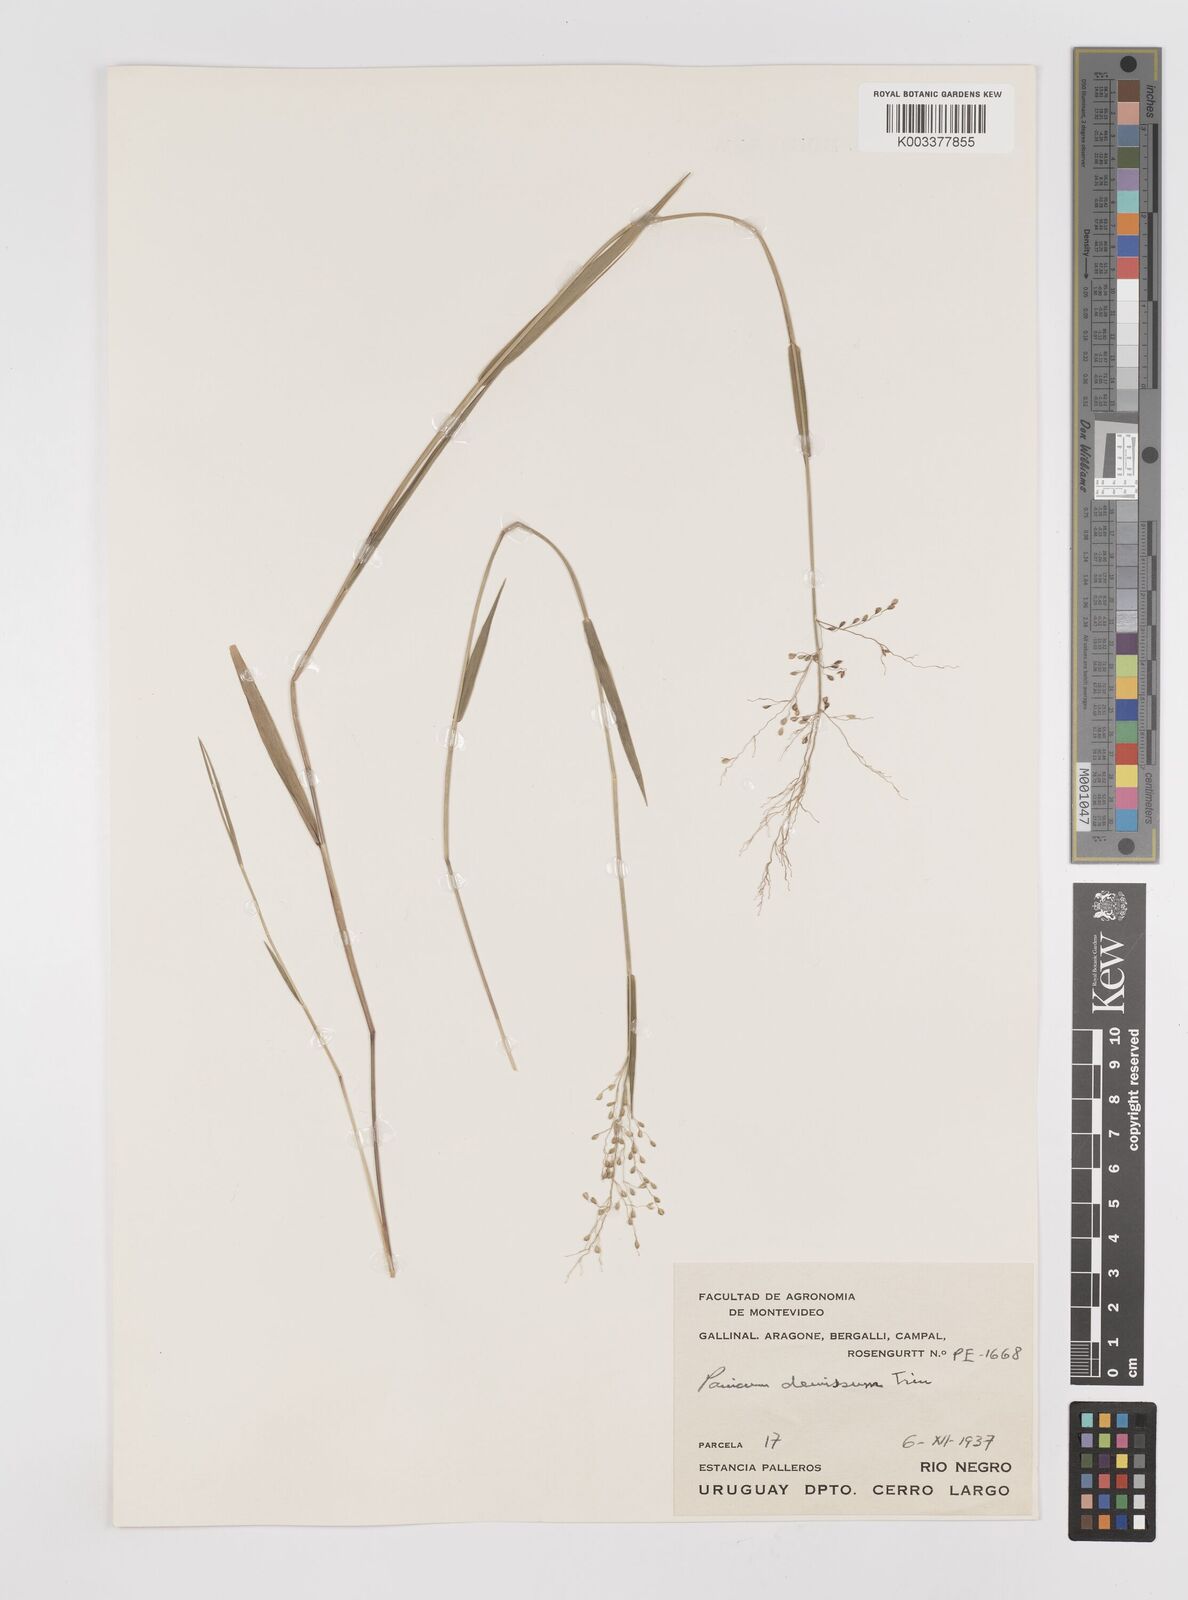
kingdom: Plantae
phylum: Tracheophyta
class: Liliopsida
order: Poales
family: Poaceae
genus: Dichanthelium
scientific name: Dichanthelium stigmosum
